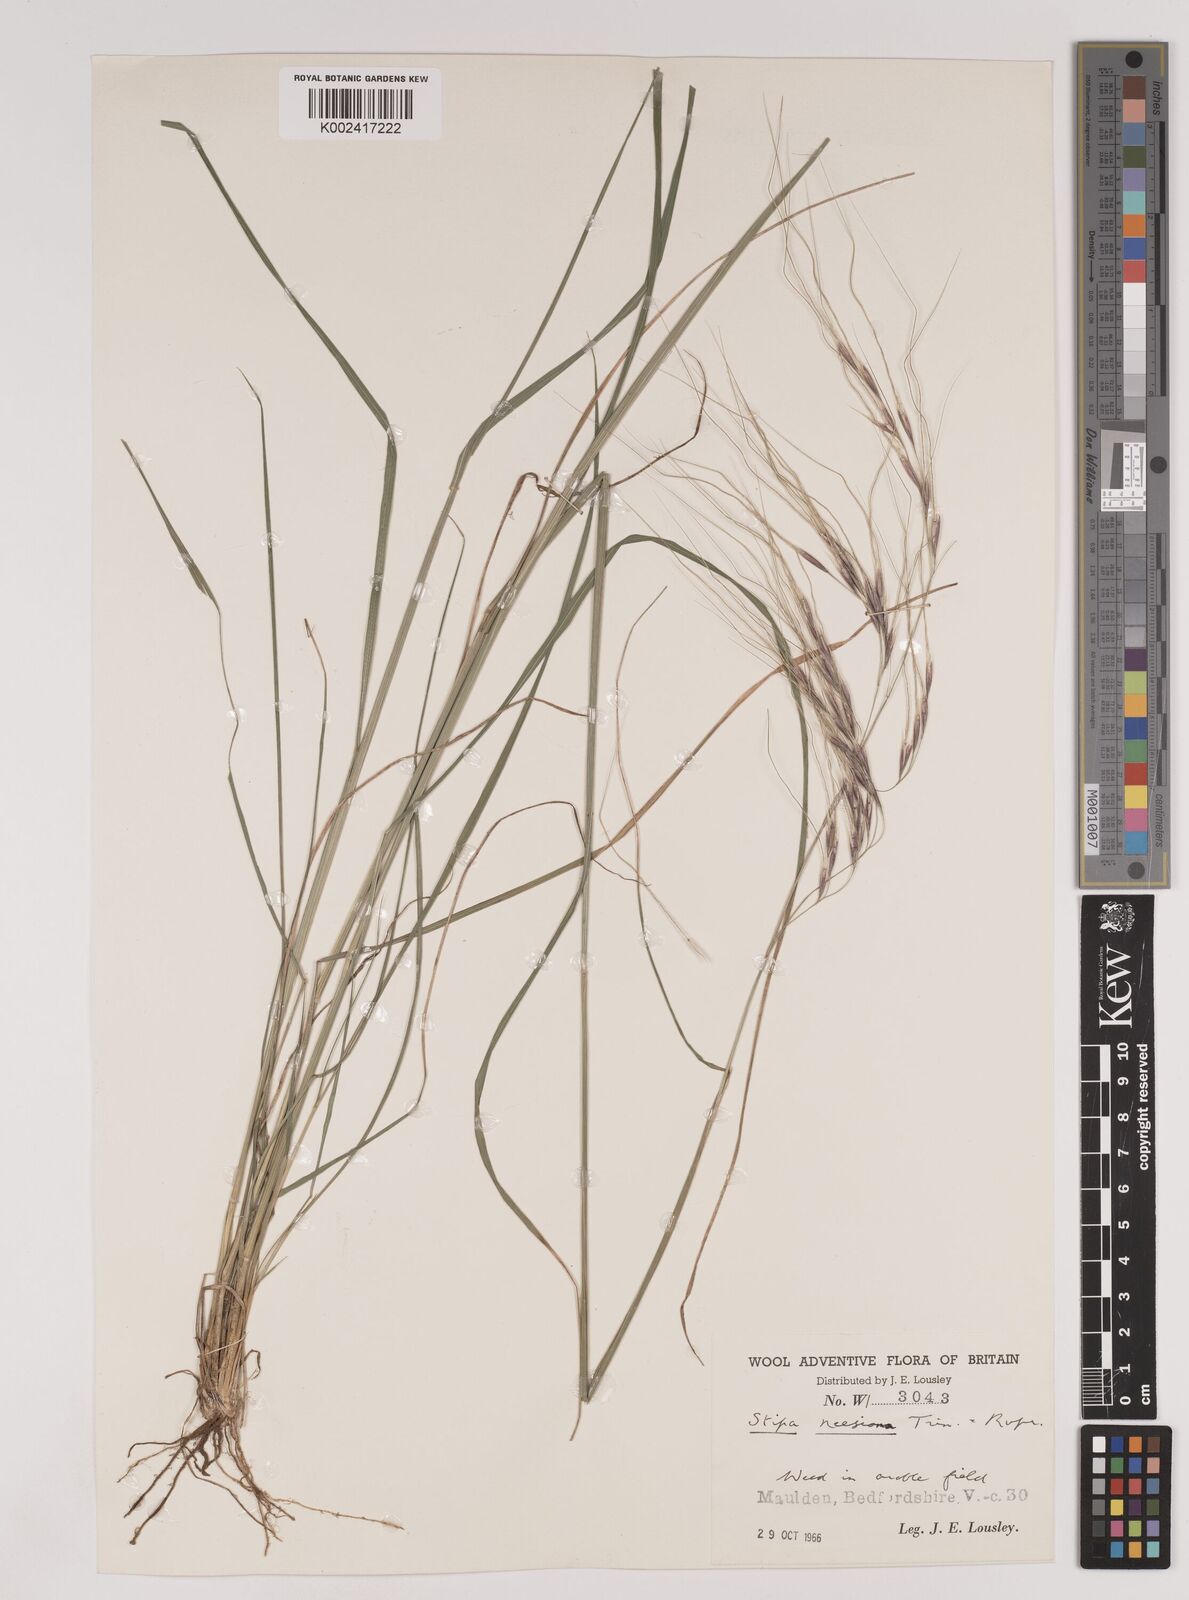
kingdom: Plantae
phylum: Tracheophyta
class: Liliopsida
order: Poales
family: Poaceae
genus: Nassella
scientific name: Nassella neesiana
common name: American needle-grass
